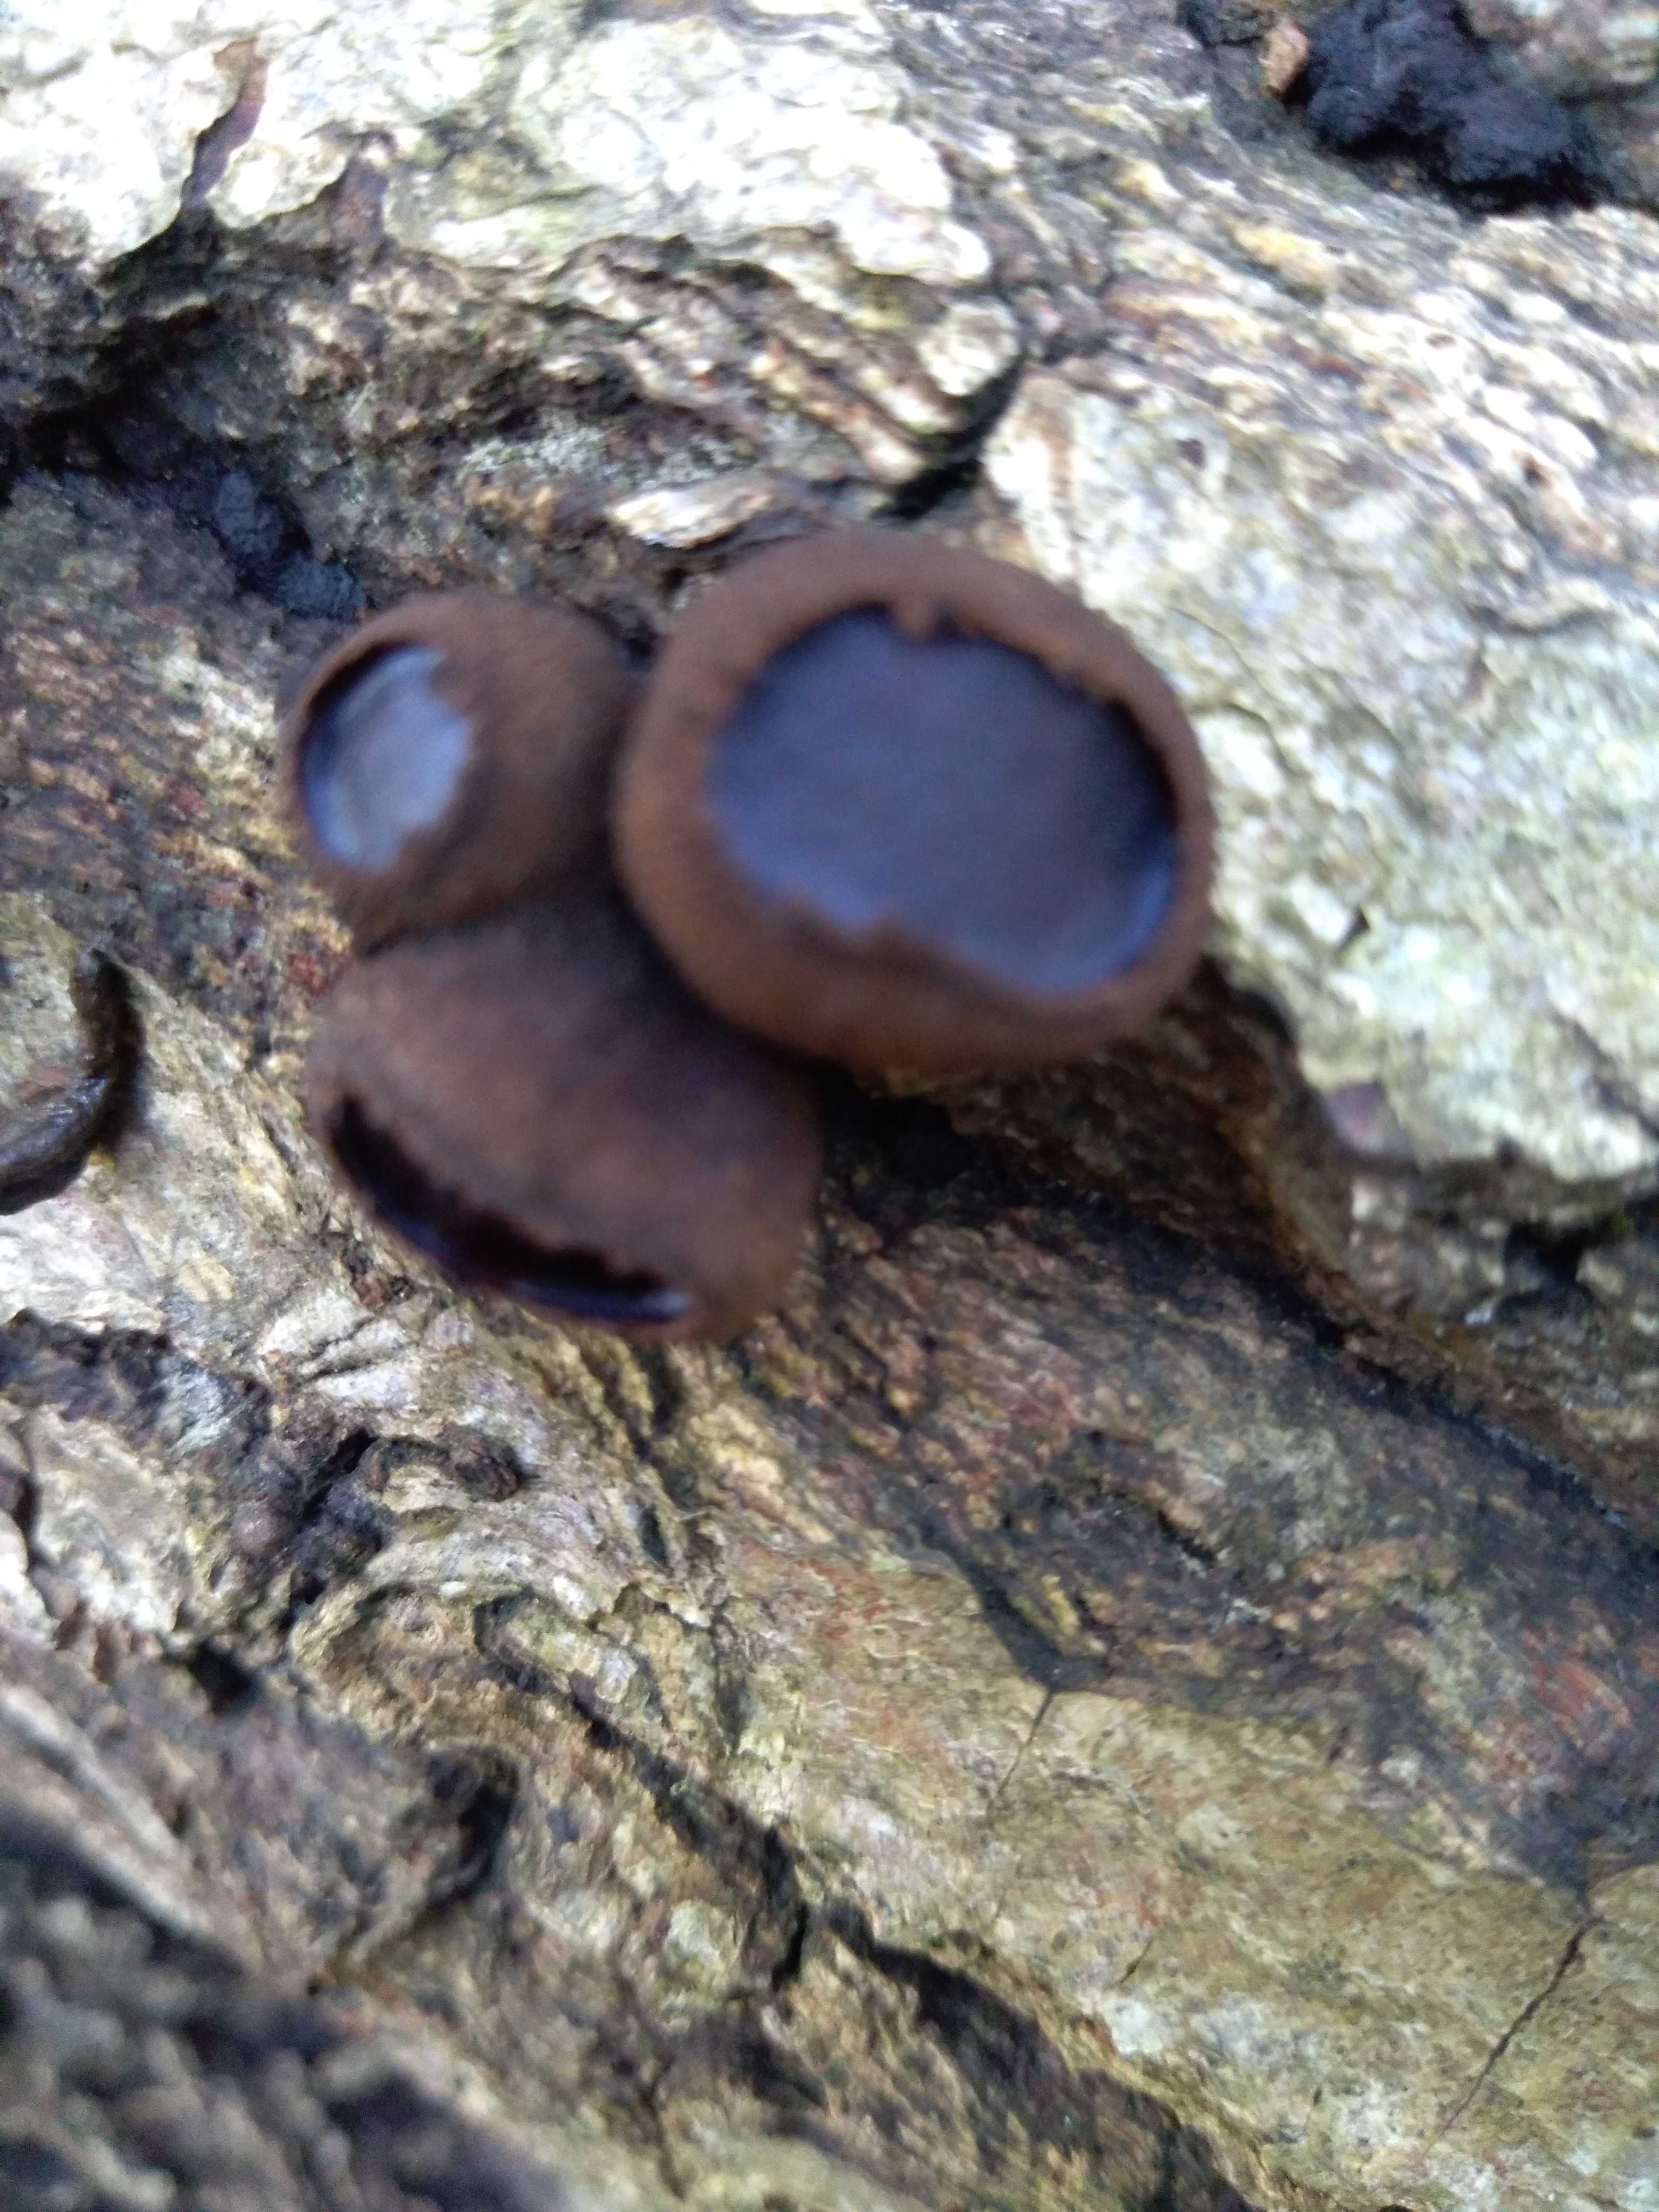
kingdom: Fungi
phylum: Ascomycota
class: Leotiomycetes
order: Phacidiales
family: Phacidiaceae
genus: Bulgaria
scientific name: Bulgaria inquinans
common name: afsmittende topsvamp
